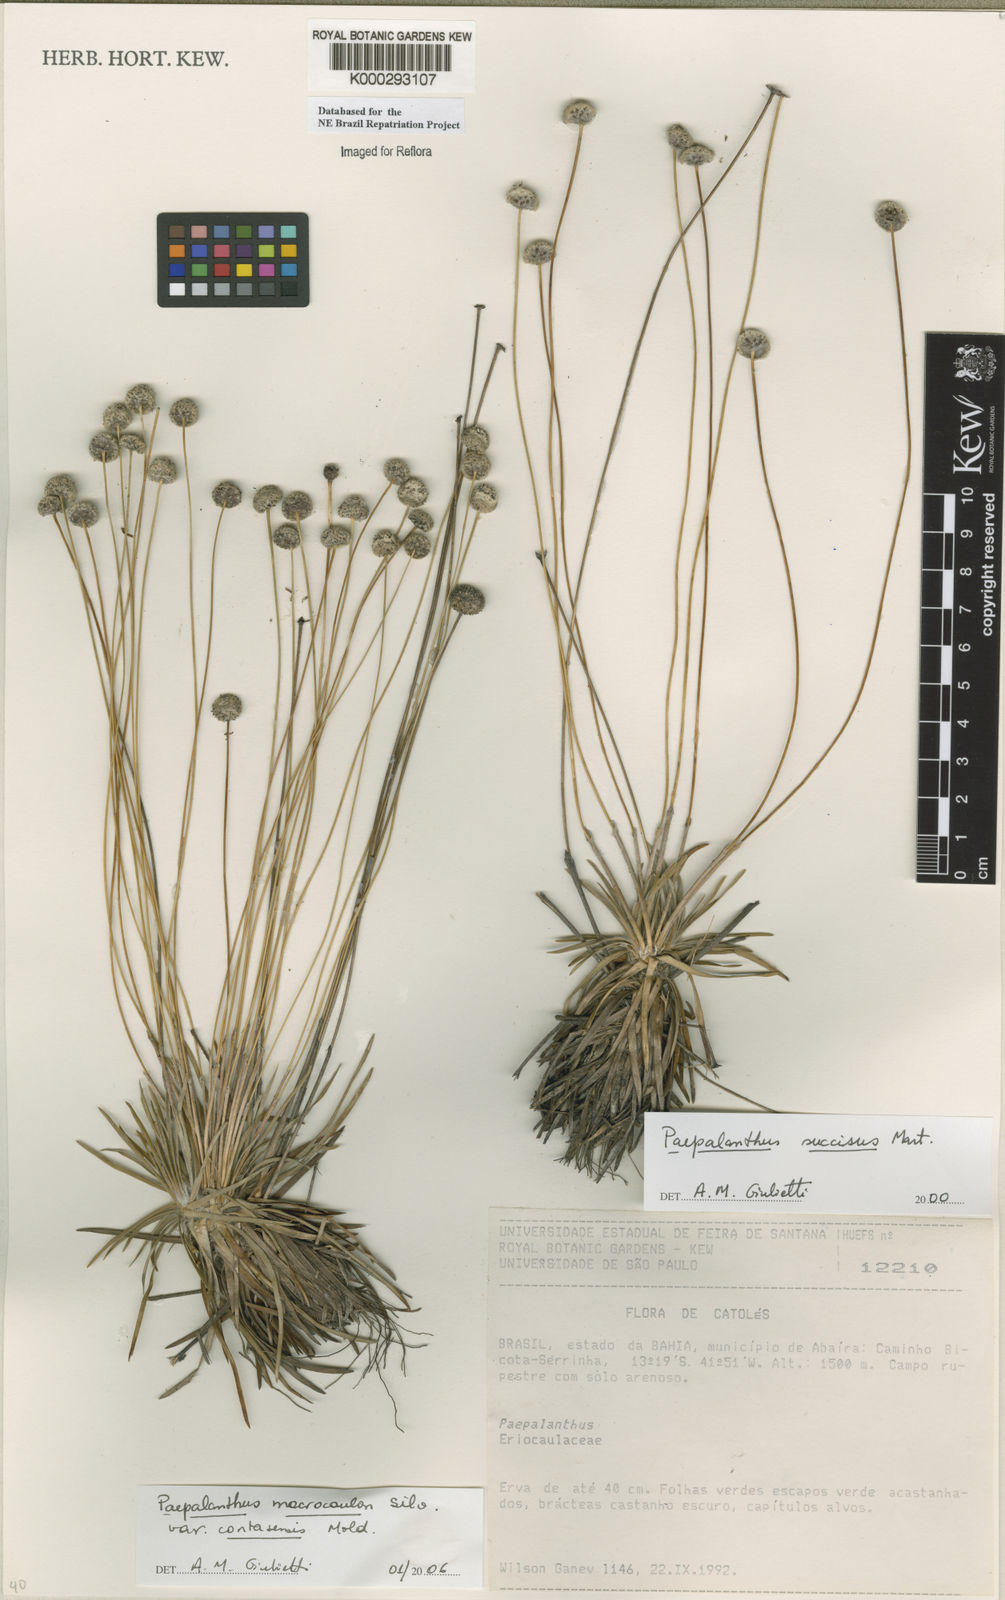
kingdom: Plantae
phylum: Tracheophyta
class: Liliopsida
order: Poales
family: Eriocaulaceae
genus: Paepalanthus
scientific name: Paepalanthus
